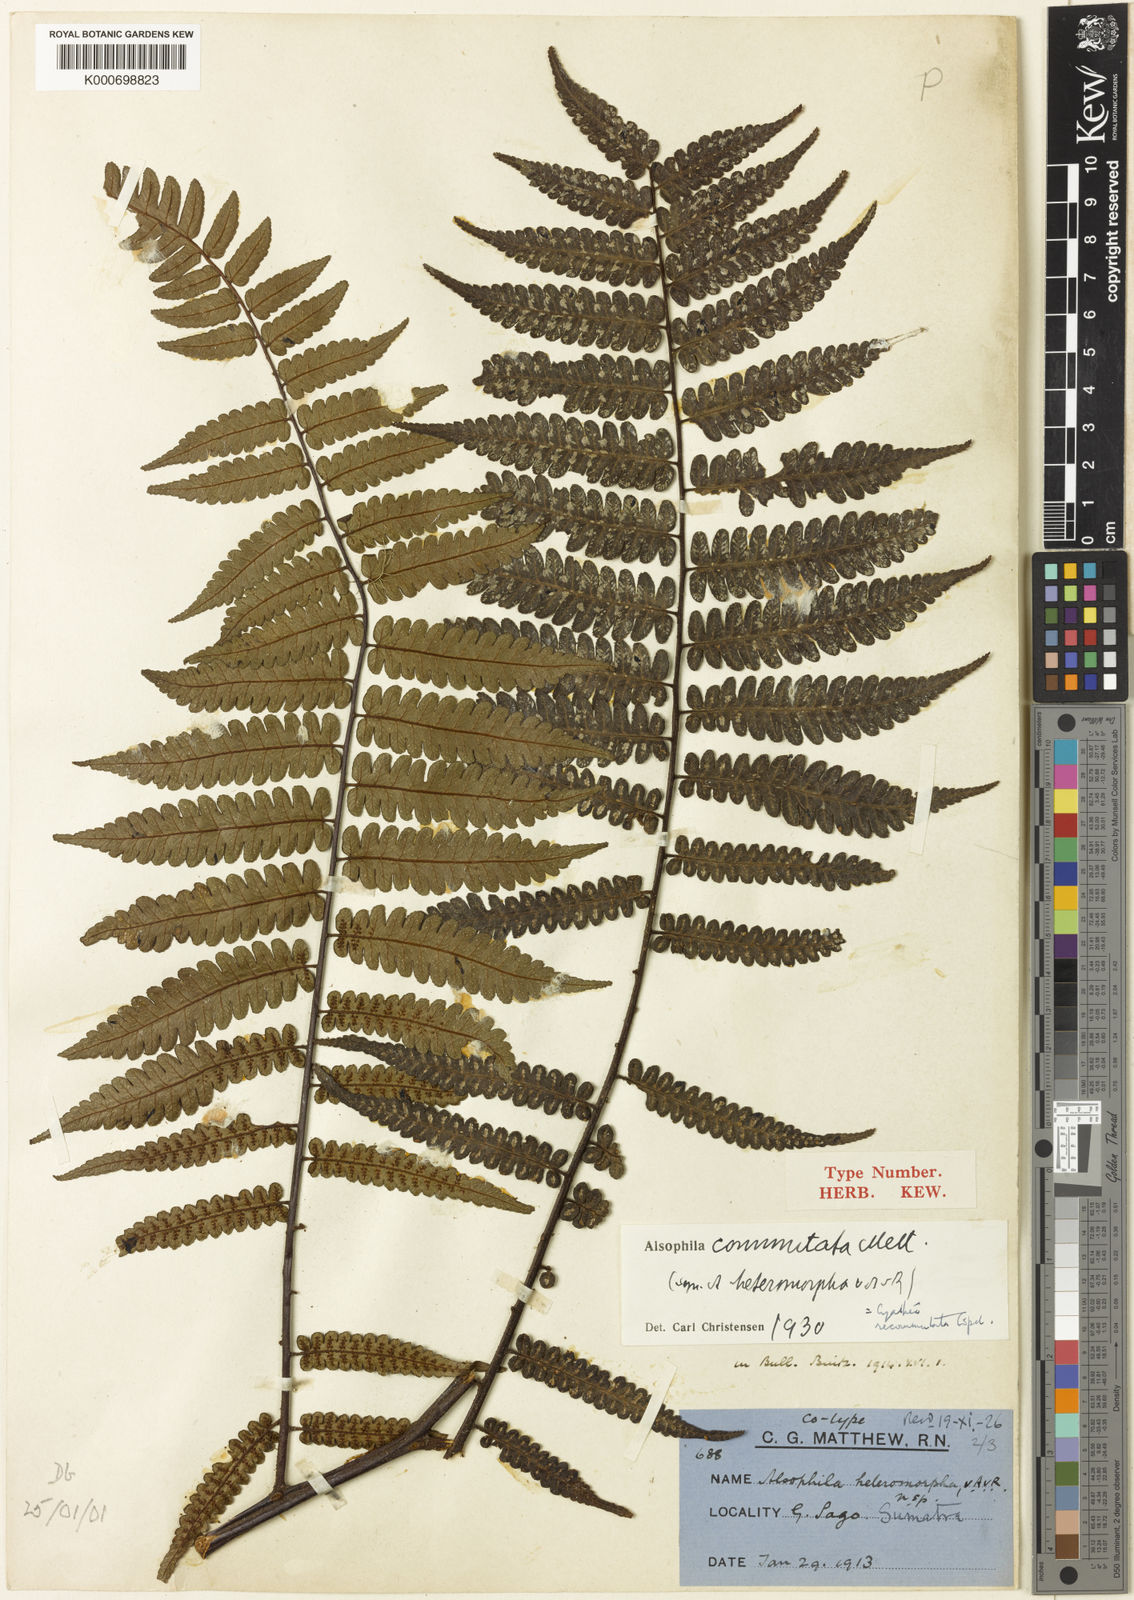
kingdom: Plantae
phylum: Tracheophyta
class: Polypodiopsida
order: Cyatheales
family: Cyatheaceae
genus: Gymnosphaera
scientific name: Gymnosphaera commutata
